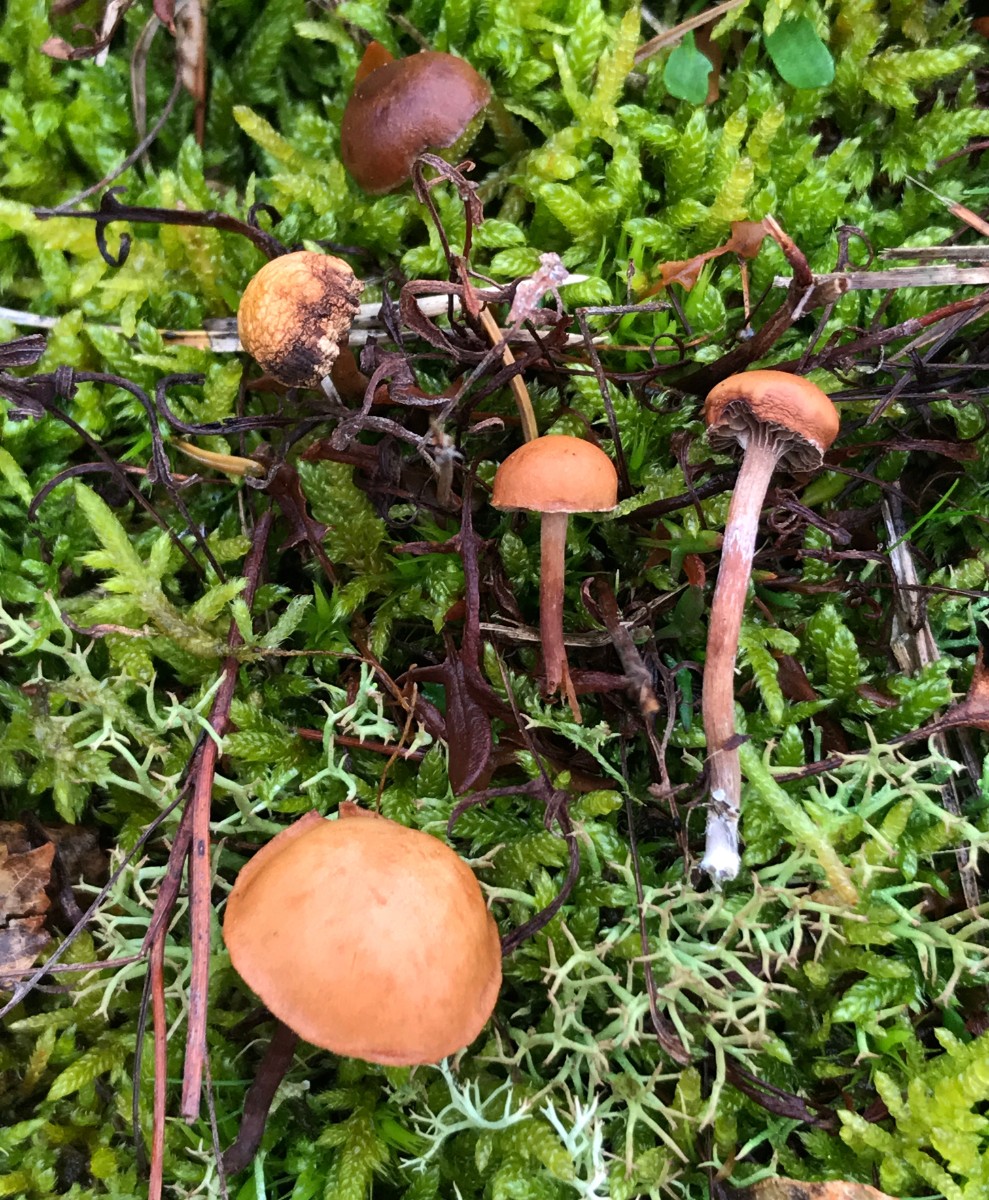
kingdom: Fungi
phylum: Basidiomycota
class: Agaricomycetes
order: Agaricales
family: Strophariaceae
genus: Deconica
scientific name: Deconica montana
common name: rødbrun stråhat
